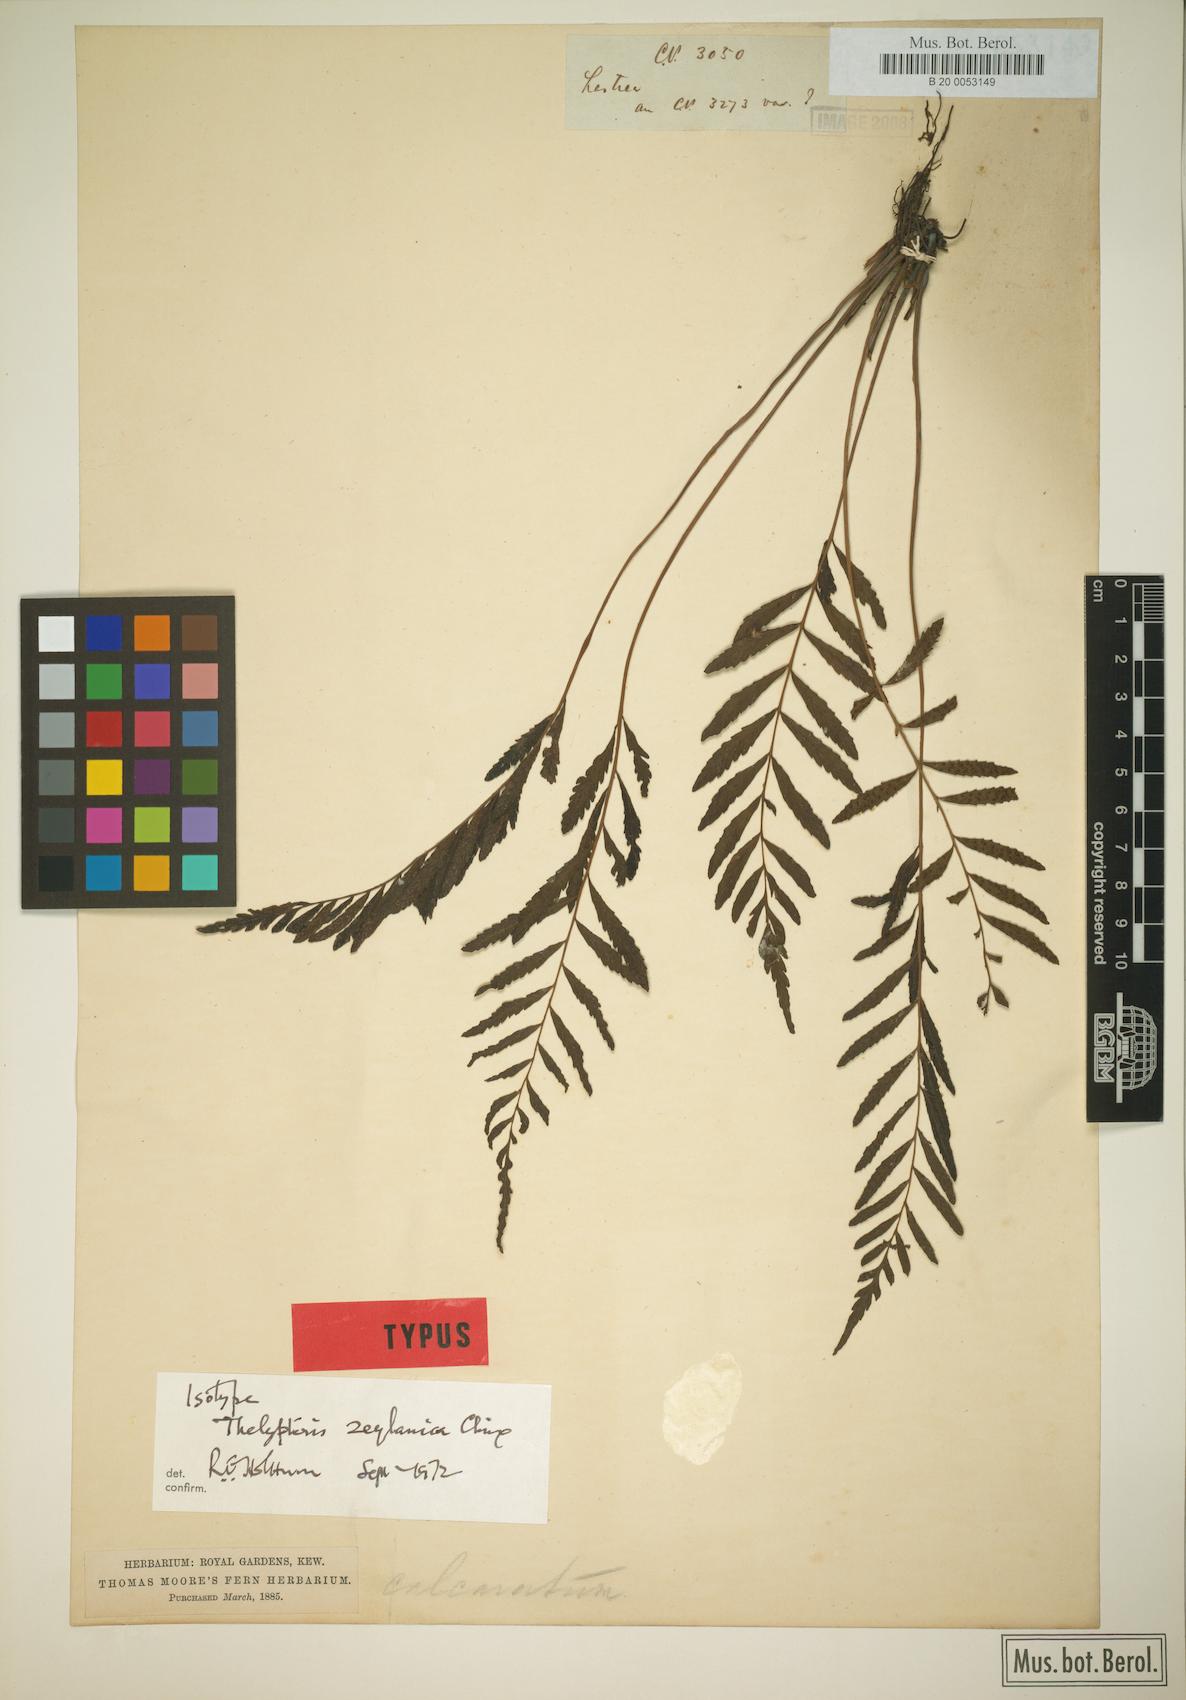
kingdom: Plantae
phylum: Tracheophyta
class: Polypodiopsida
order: Polypodiales
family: Thelypteridaceae
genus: Trigonospora
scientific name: Trigonospora zeylanica
